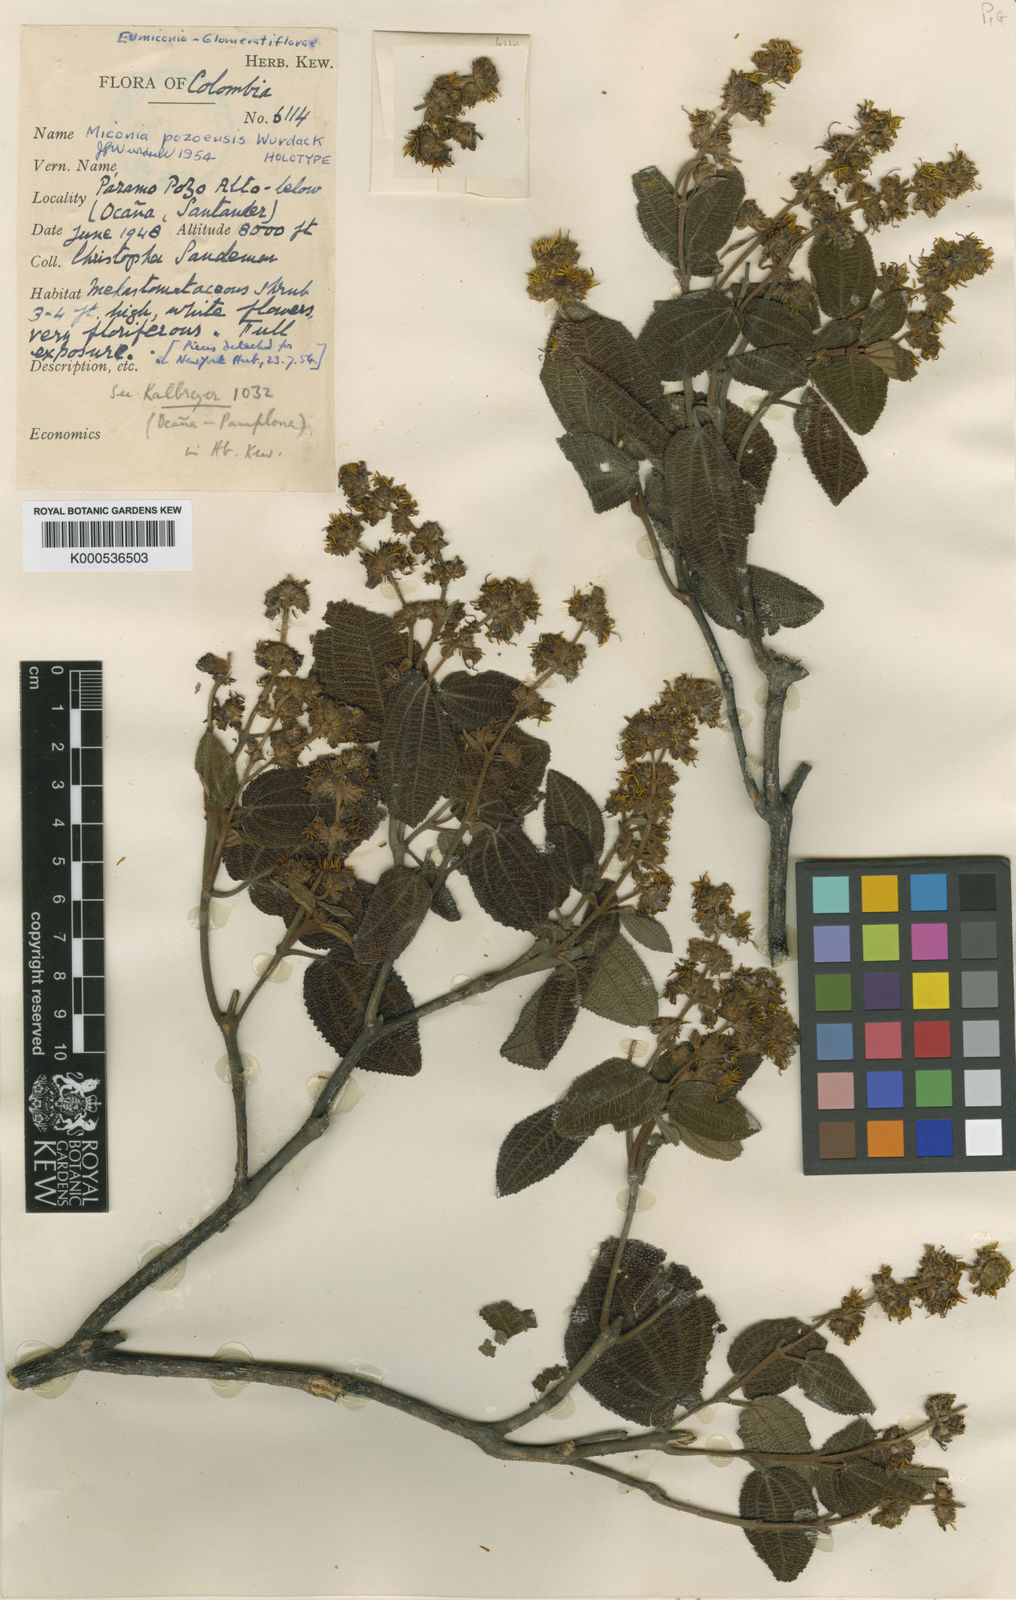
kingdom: Plantae
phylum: Tracheophyta
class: Magnoliopsida
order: Myrtales
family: Melastomataceae
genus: Miconia
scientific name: Miconia pozoensis
